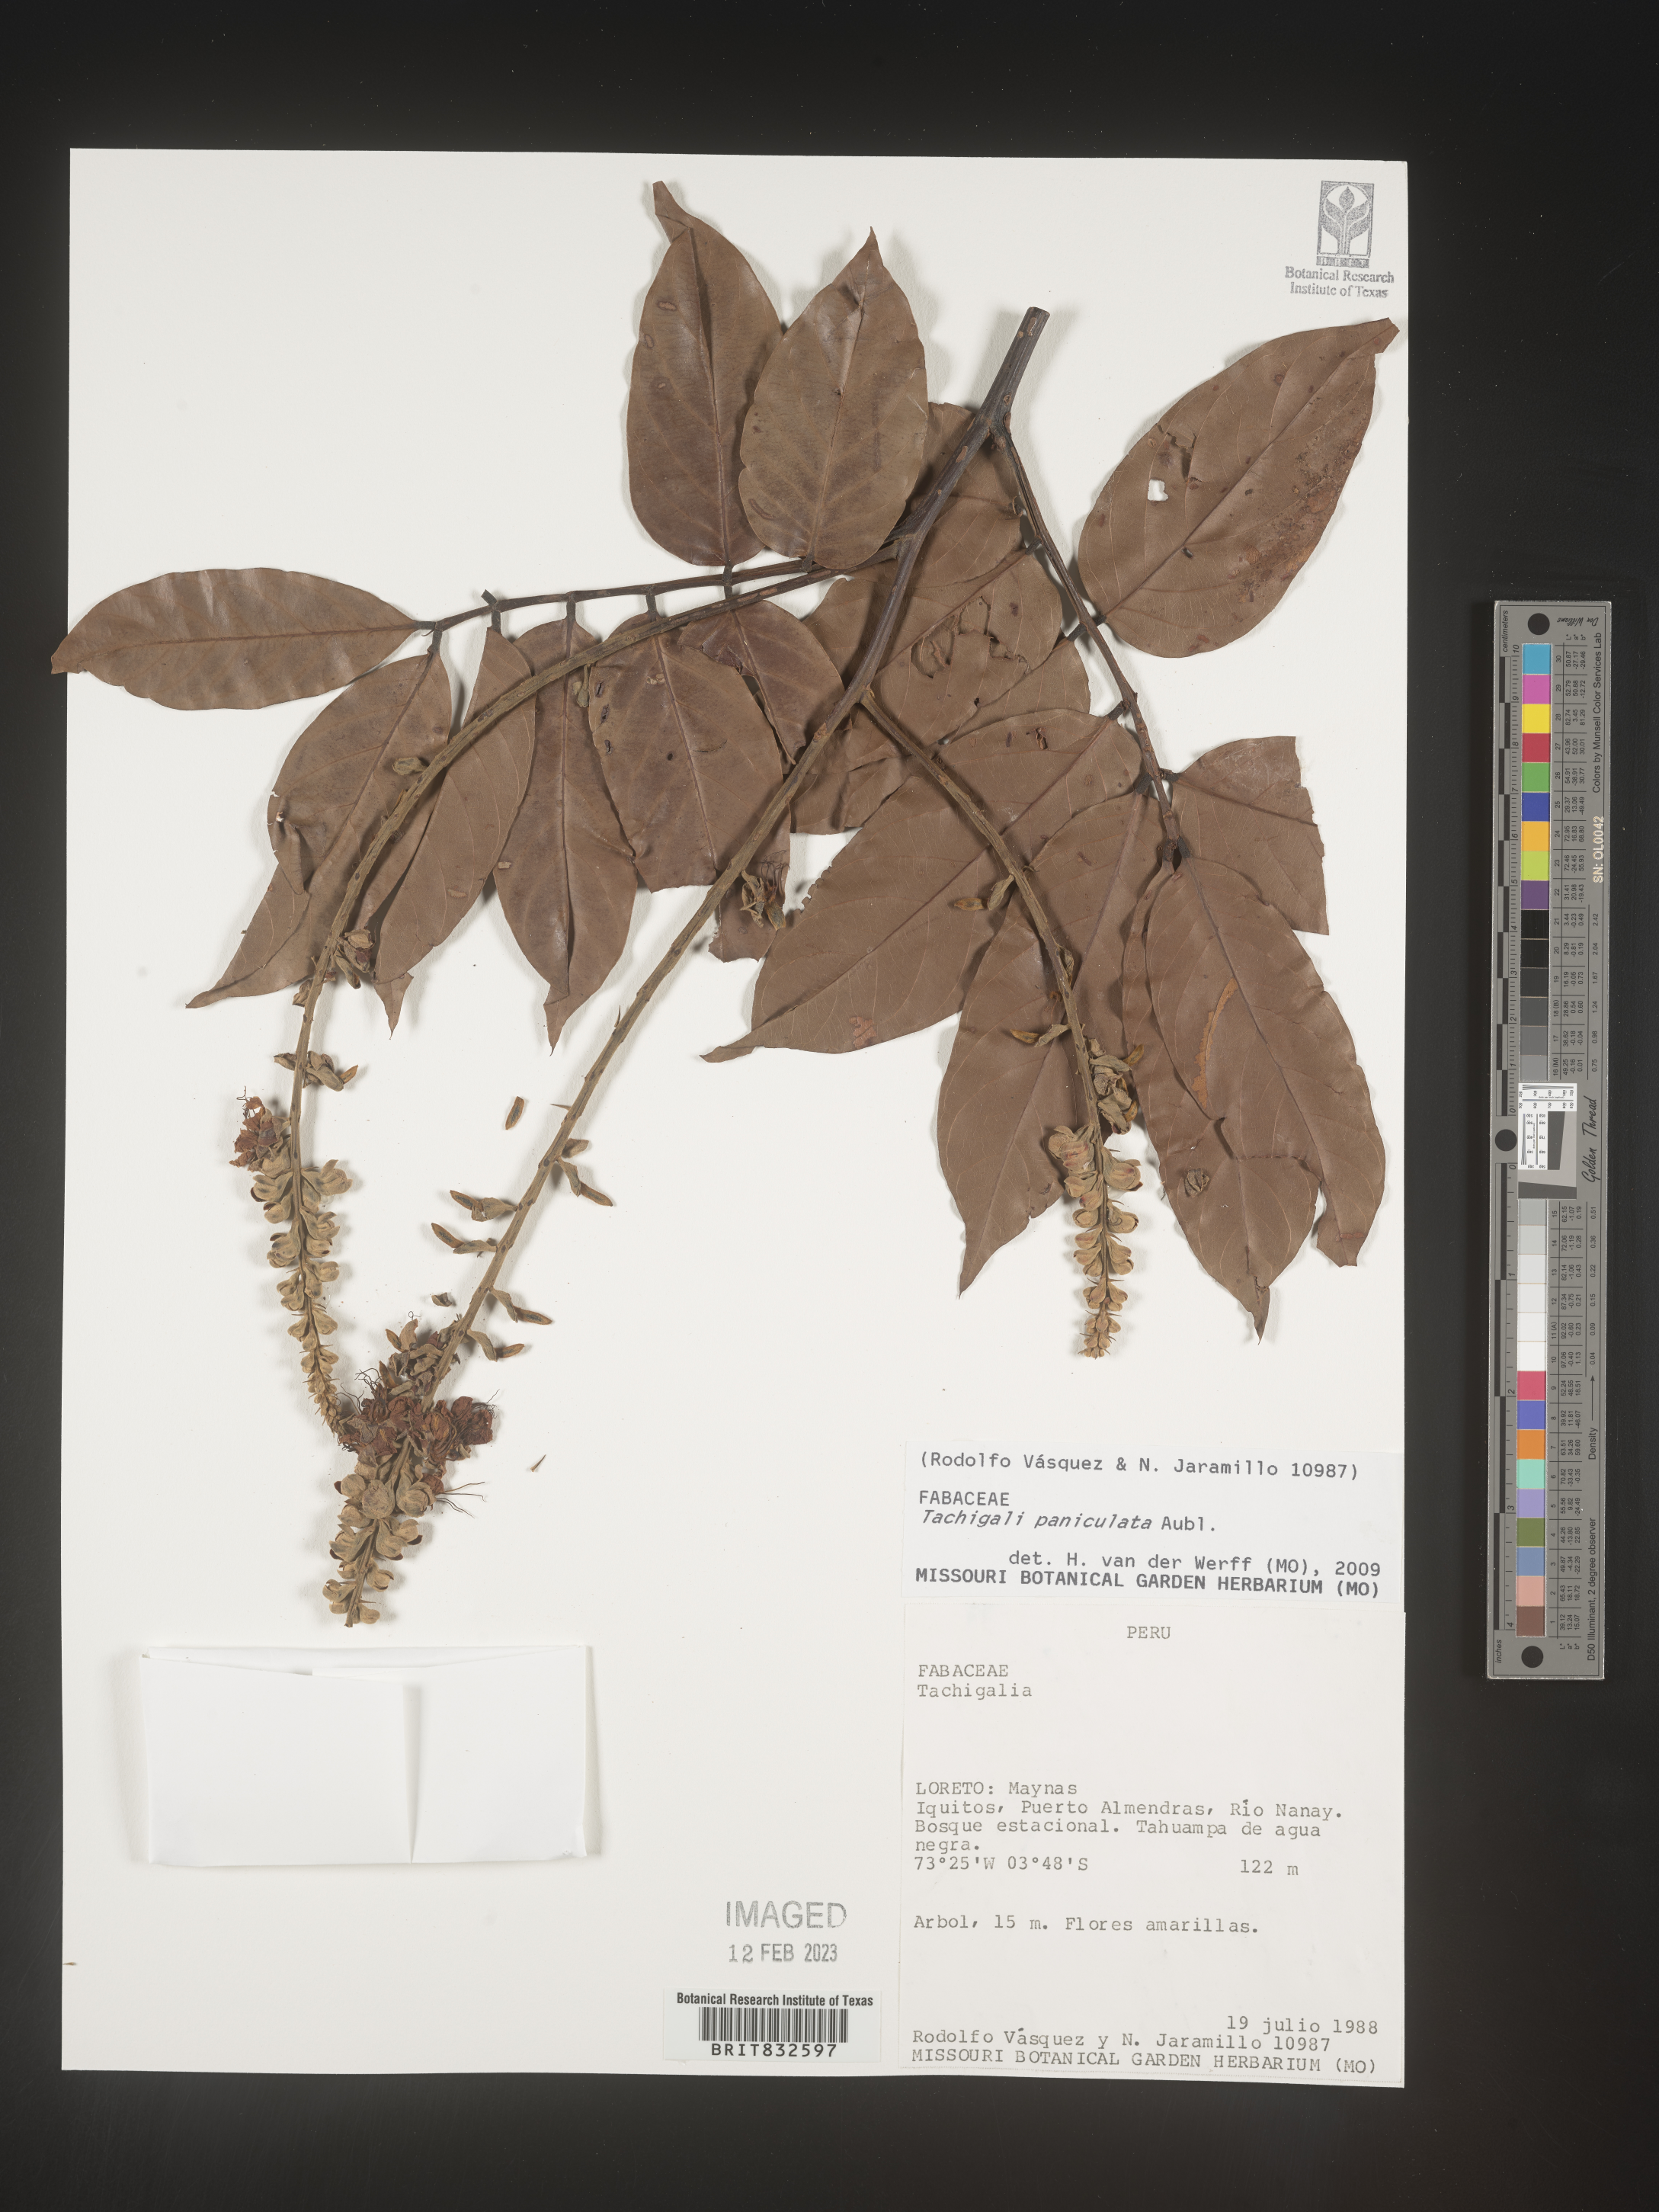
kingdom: Plantae
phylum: Tracheophyta
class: Magnoliopsida
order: Fabales
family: Fabaceae
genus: Tachigali
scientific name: Tachigali
